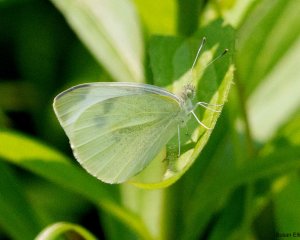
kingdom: Animalia
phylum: Arthropoda
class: Insecta
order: Lepidoptera
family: Pieridae
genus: Pieris
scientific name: Pieris rapae
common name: Cabbage White
